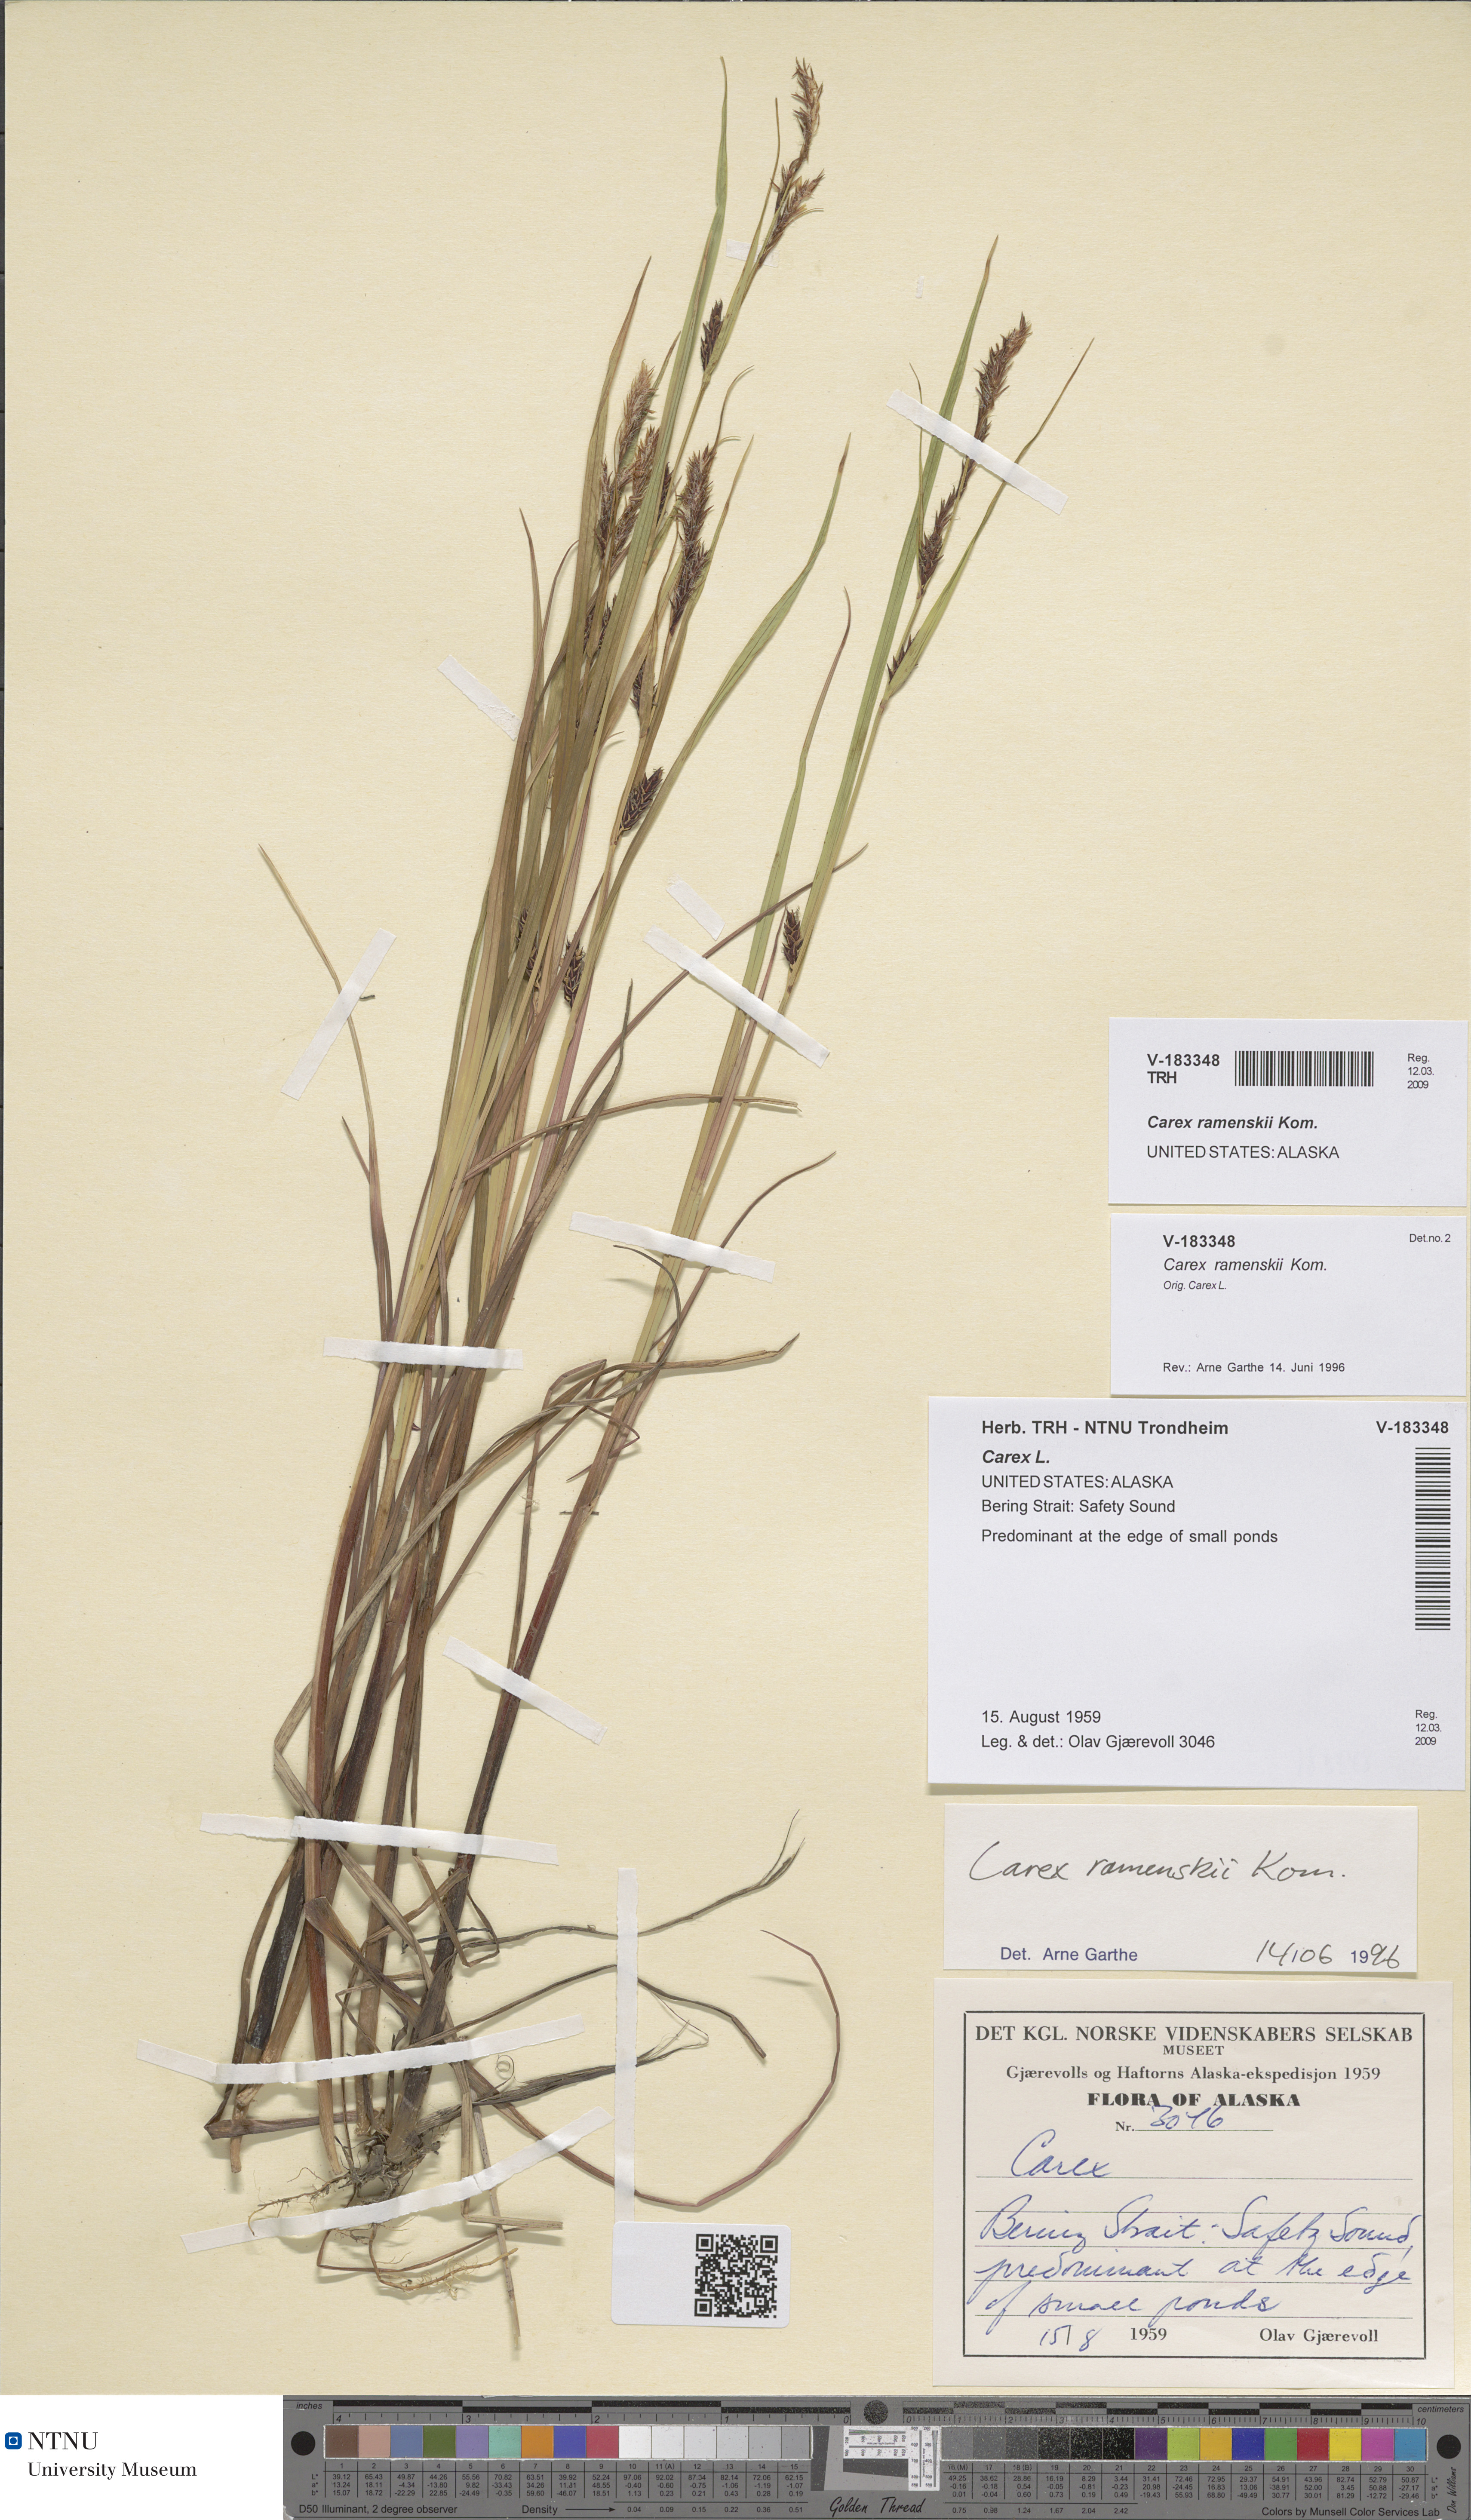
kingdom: Plantae
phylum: Tracheophyta
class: Liliopsida
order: Poales
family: Cyperaceae
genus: Carex
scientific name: Carex ramenskii
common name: Ramensk's sedge
